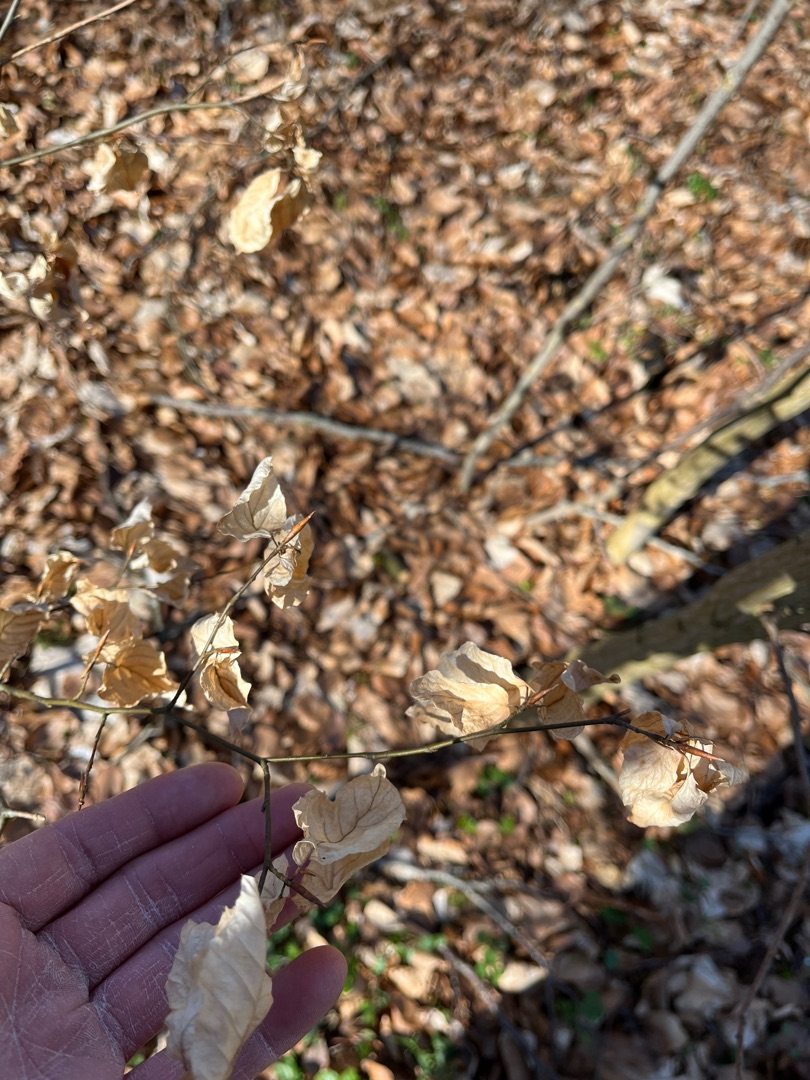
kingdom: Plantae
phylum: Tracheophyta
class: Magnoliopsida
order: Fagales
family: Fagaceae
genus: Fagus
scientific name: Fagus sylvatica
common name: Bøg
